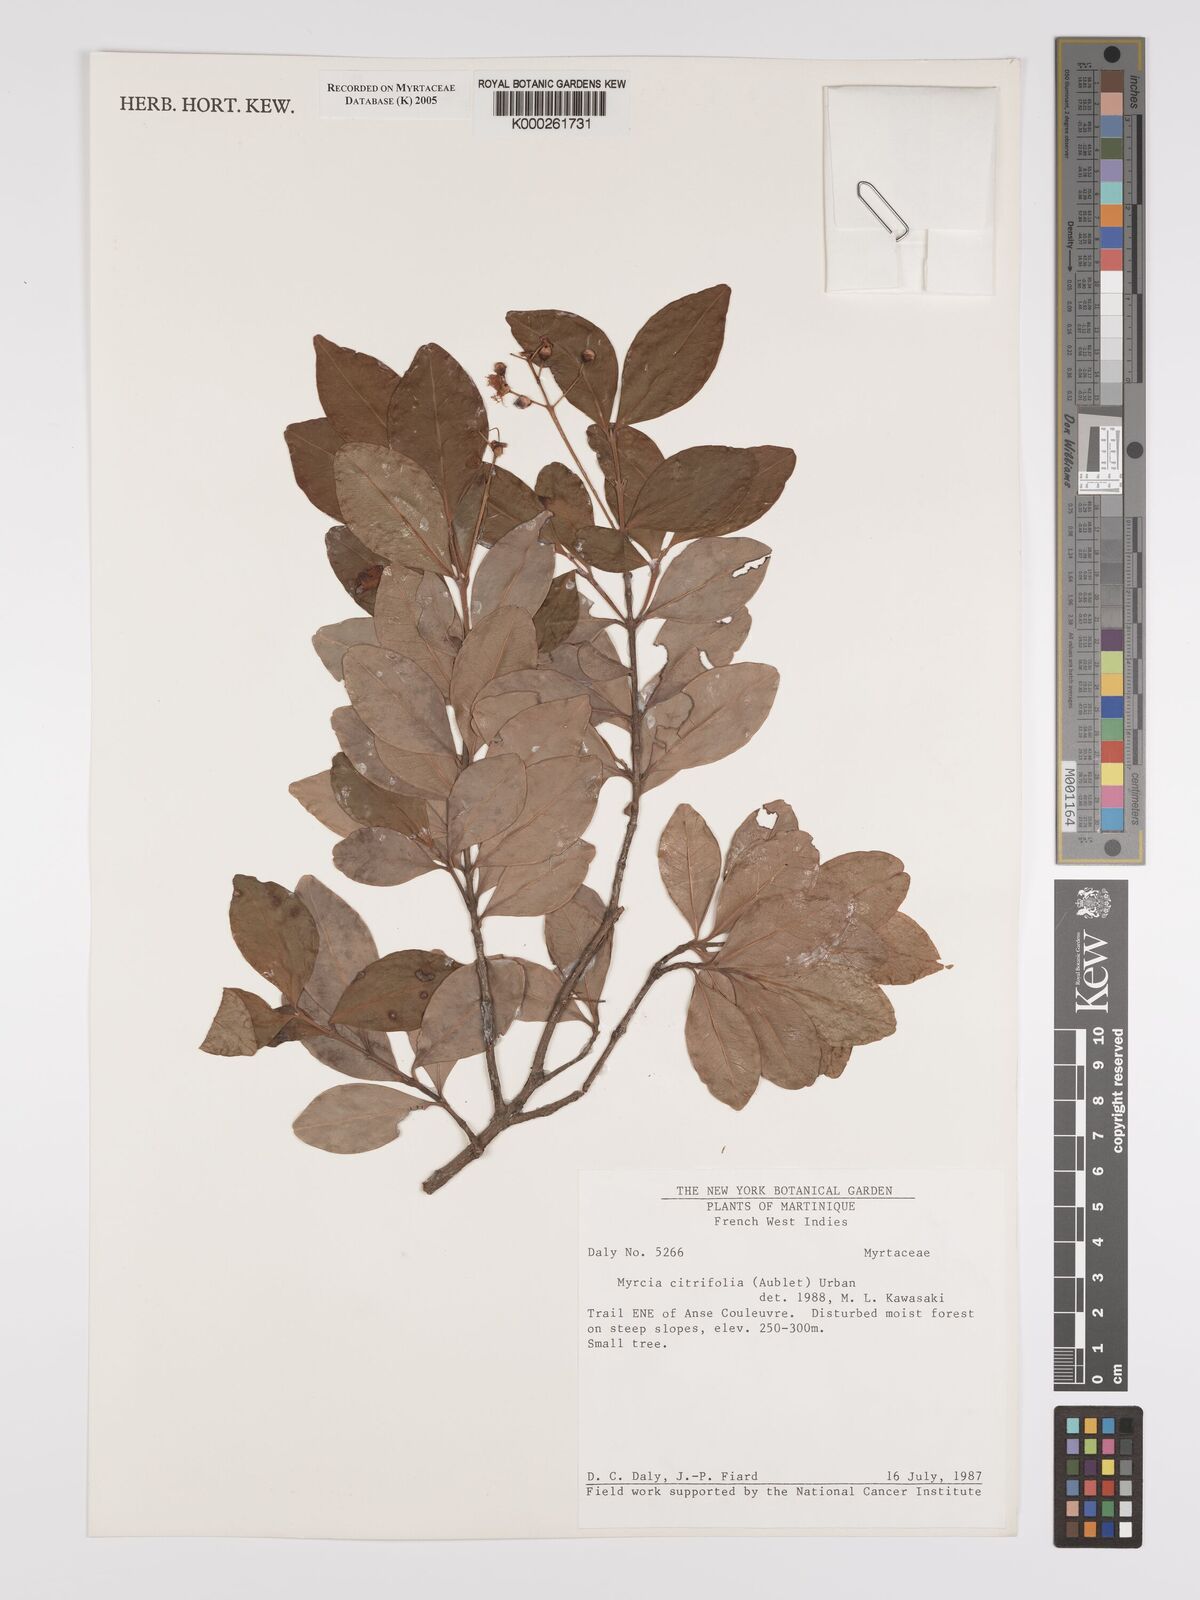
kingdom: Plantae
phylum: Tracheophyta
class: Magnoliopsida
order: Myrtales
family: Myrtaceae
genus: Myrcia
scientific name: Myrcia guianensis
